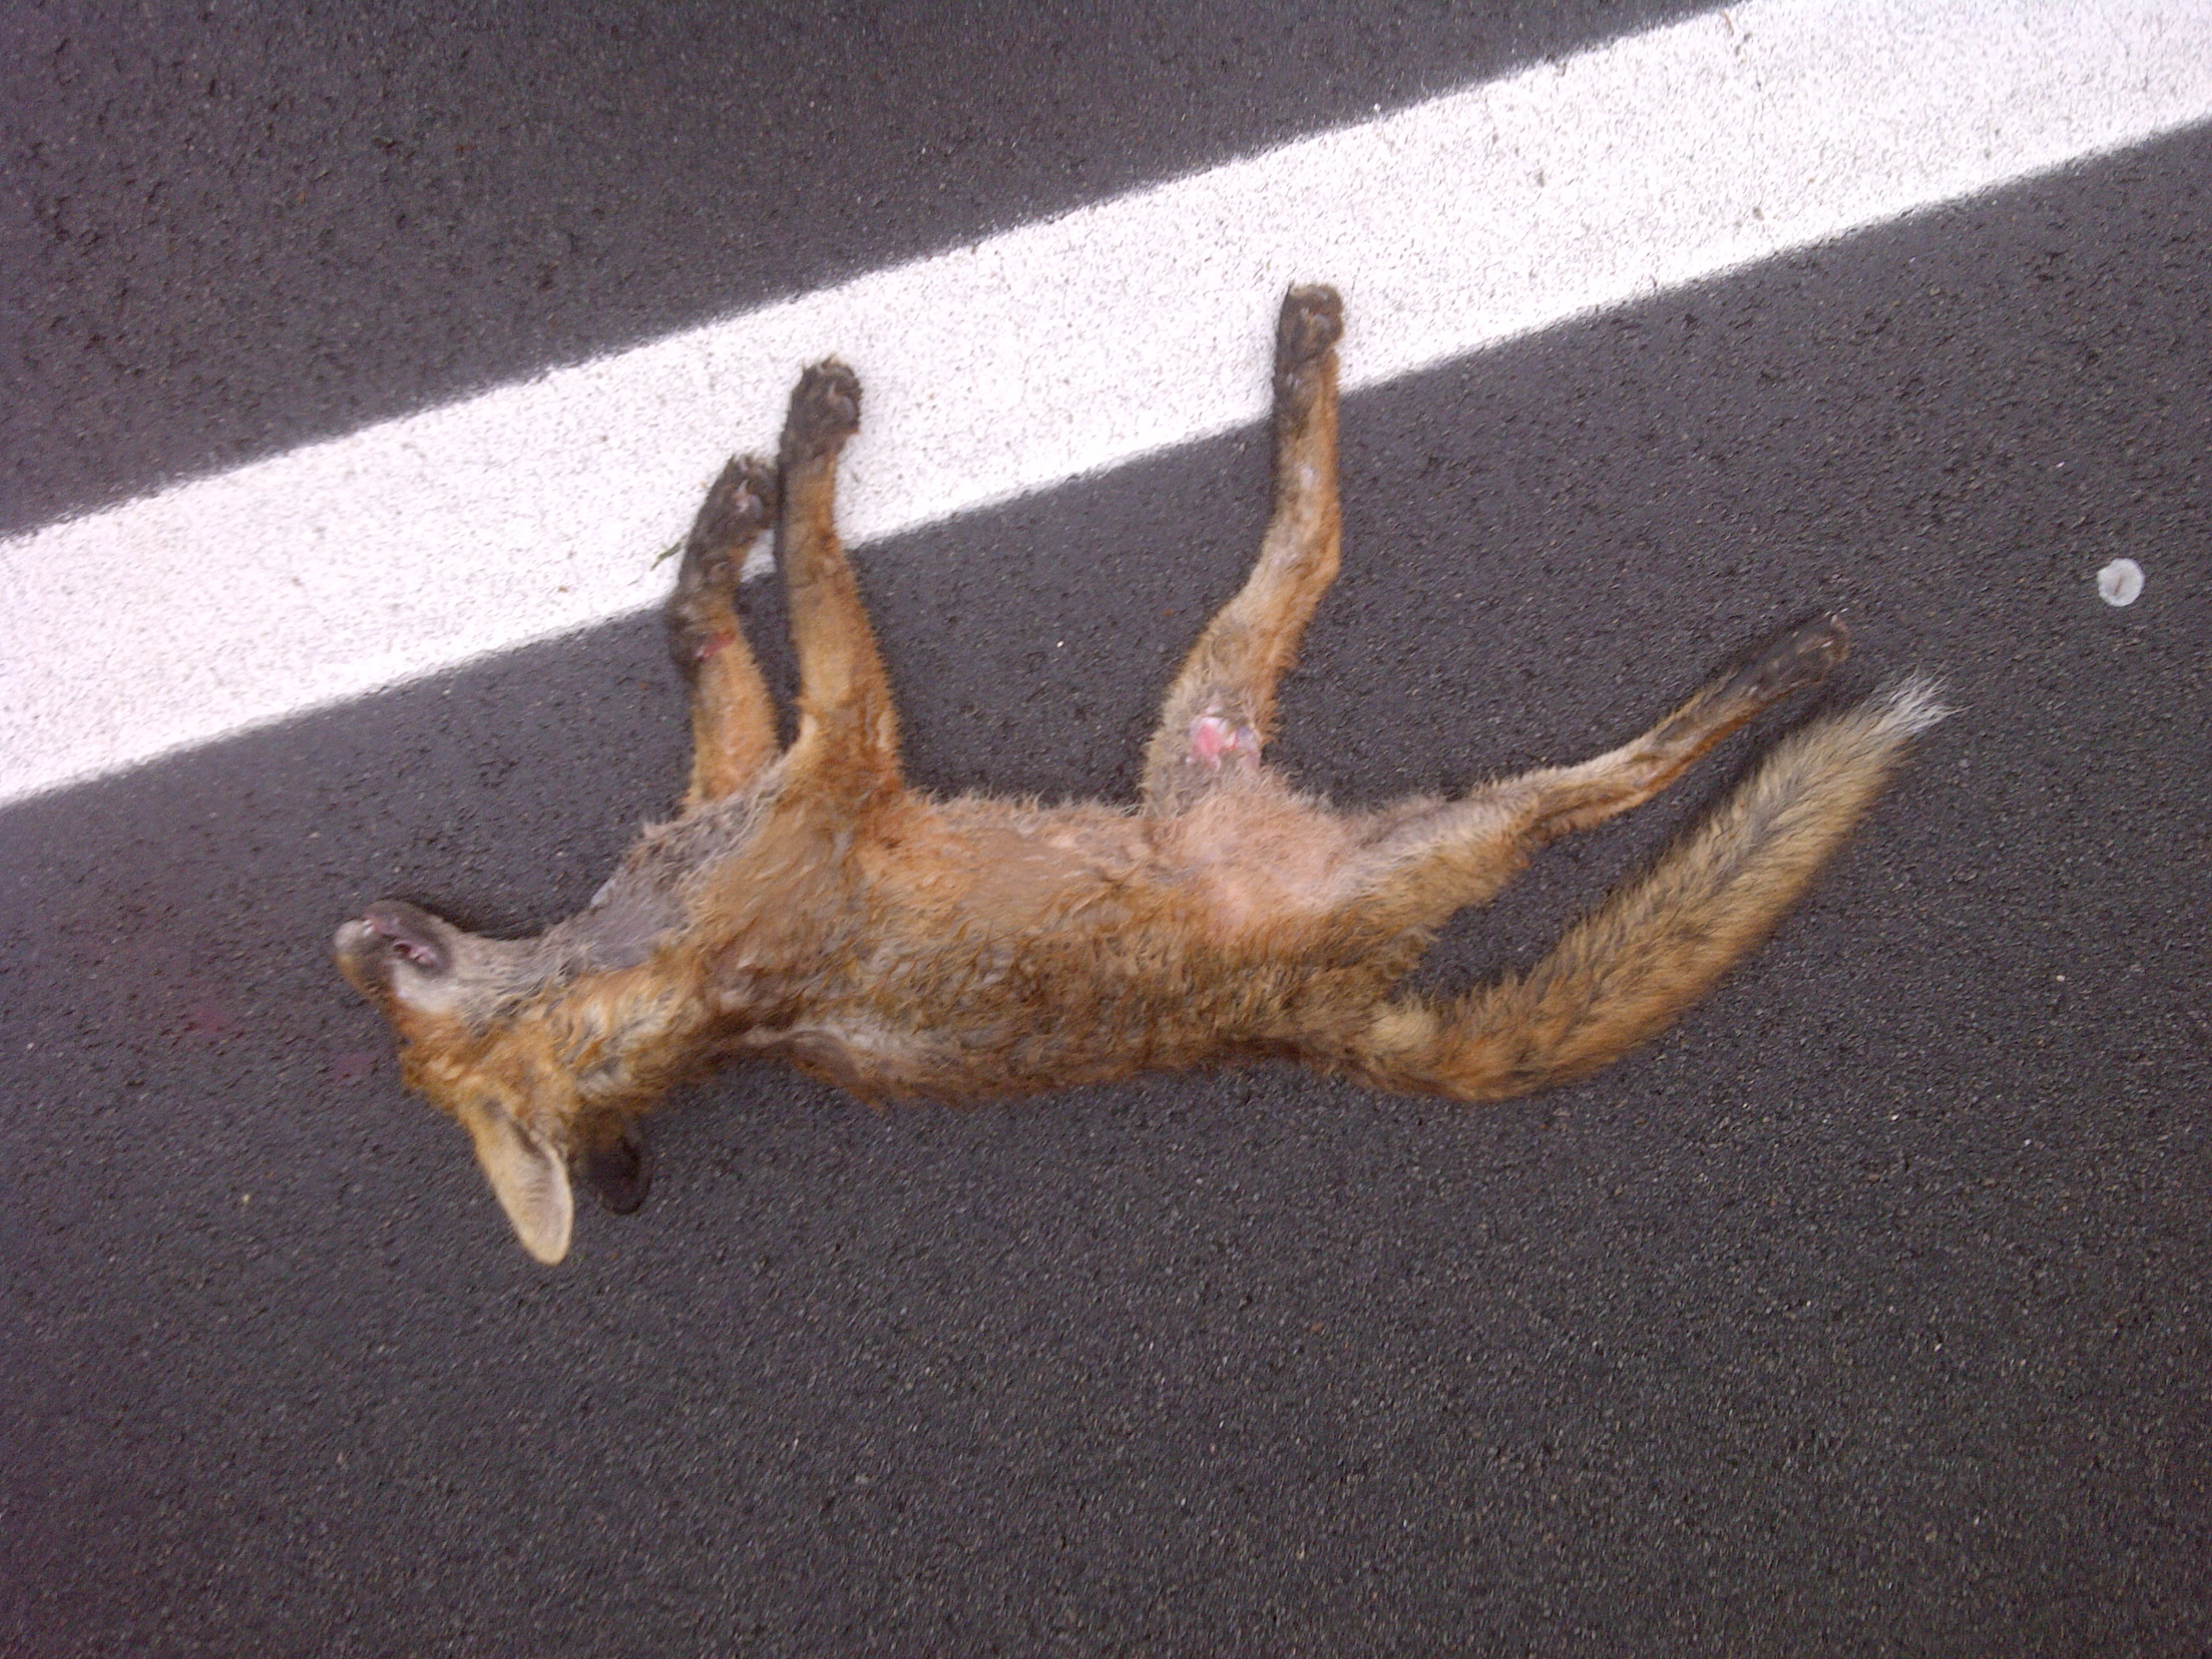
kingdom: Animalia
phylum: Chordata
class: Mammalia
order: Carnivora
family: Canidae
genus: Vulpes
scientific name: Vulpes vulpes
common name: Red fox
